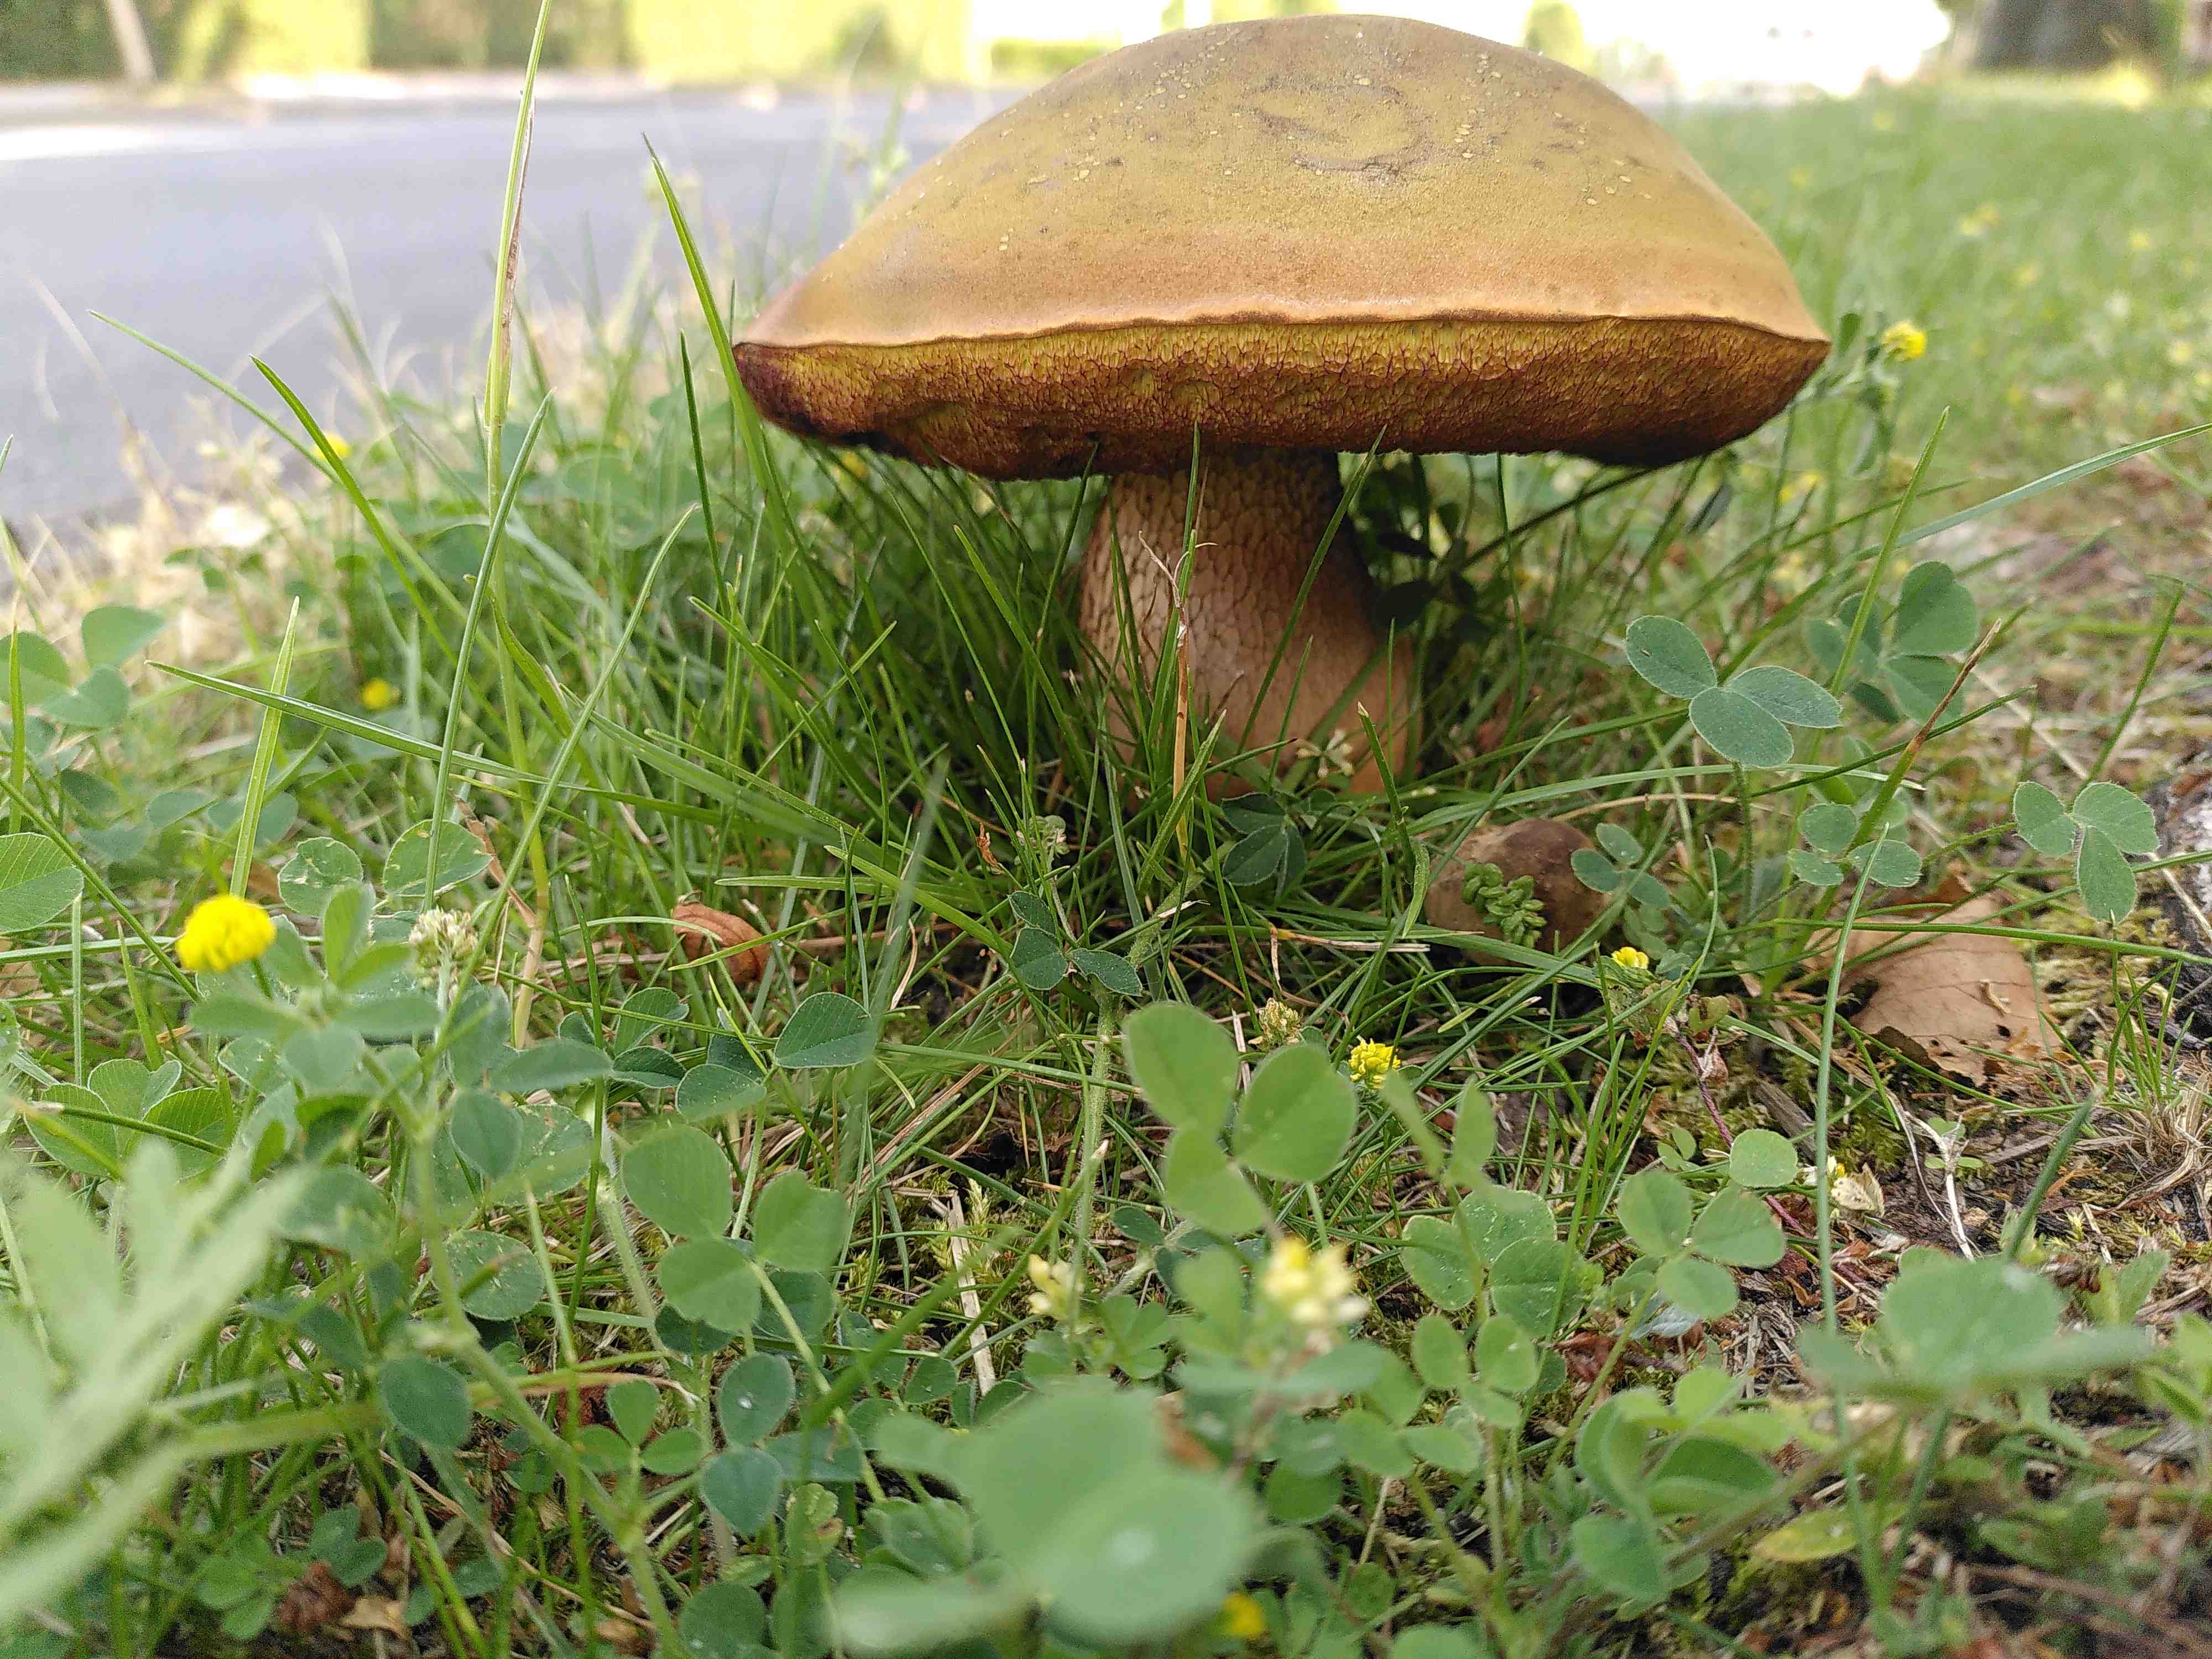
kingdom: Fungi
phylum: Basidiomycota
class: Agaricomycetes
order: Boletales
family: Boletaceae
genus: Suillellus
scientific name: Suillellus luridus
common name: netstokket indigorørhat
